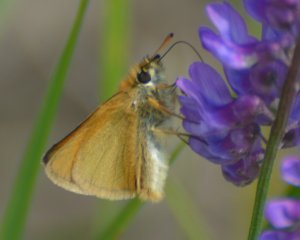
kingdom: Animalia
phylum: Arthropoda
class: Insecta
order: Lepidoptera
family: Hesperiidae
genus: Thymelicus
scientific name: Thymelicus lineola
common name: European Skipper
